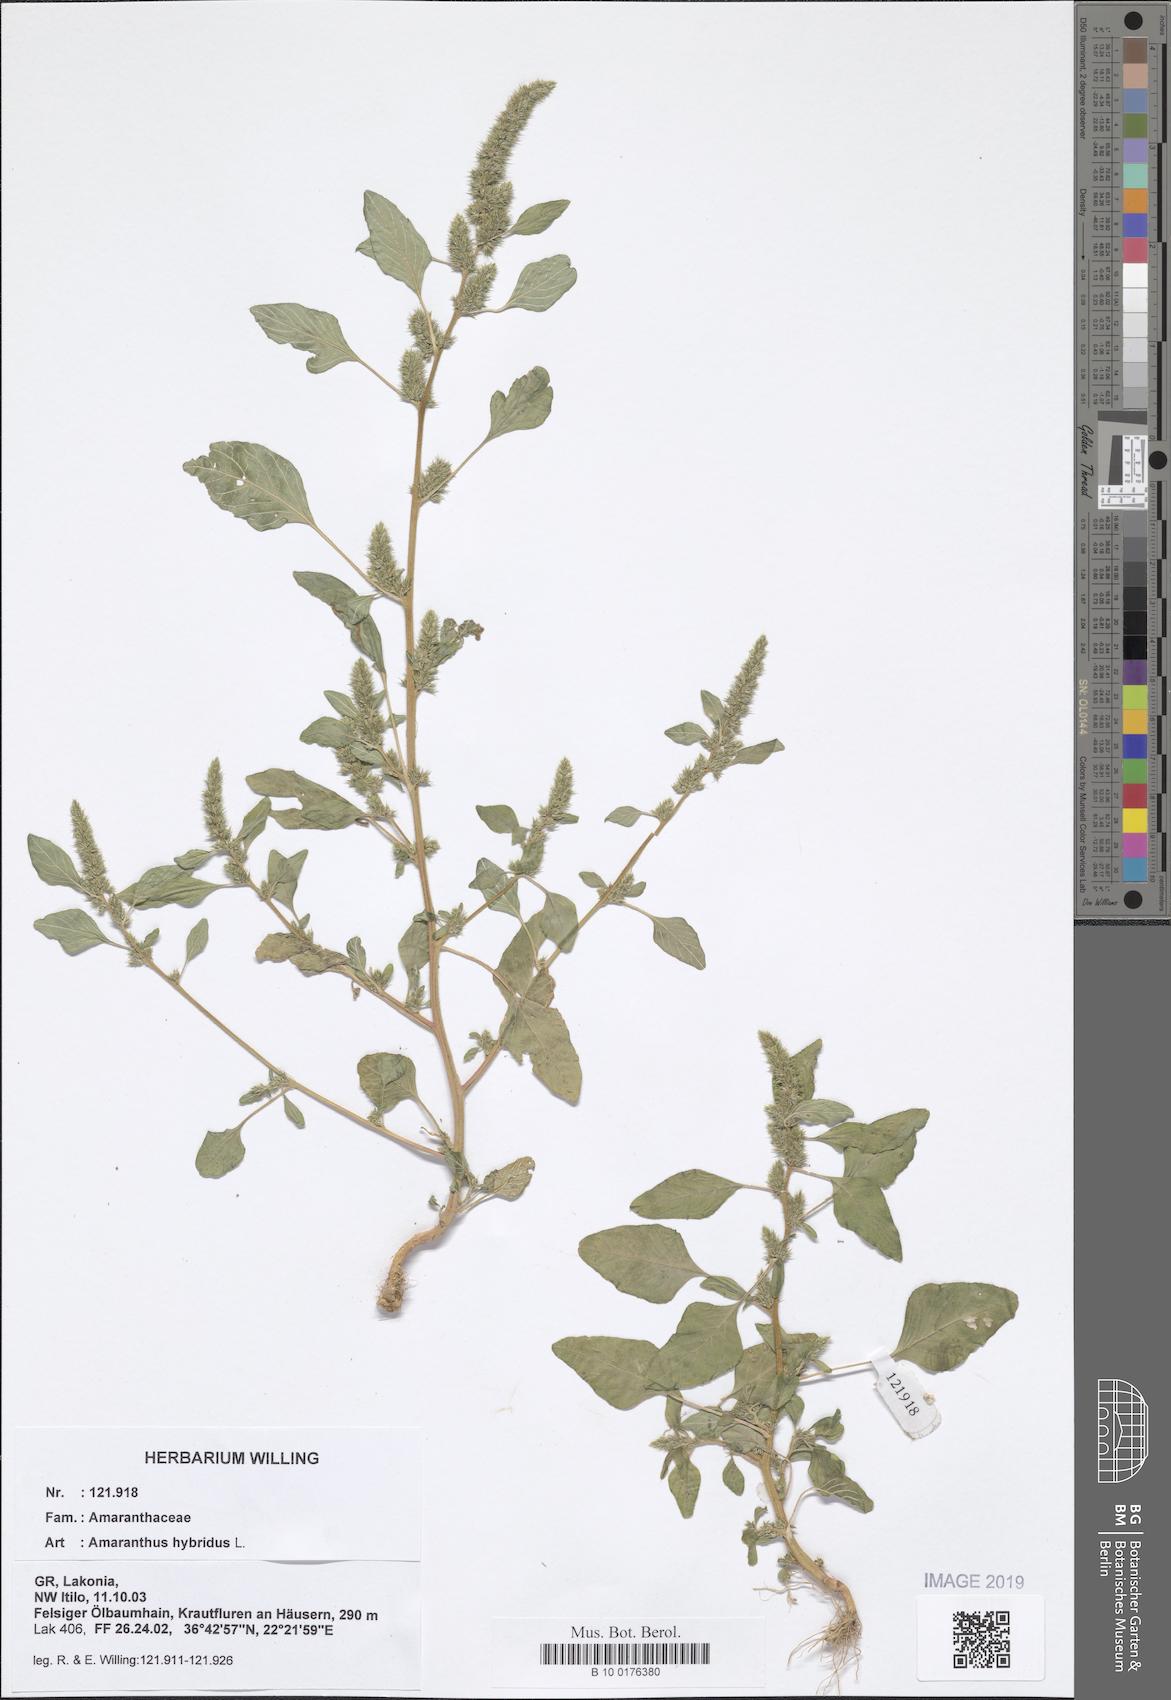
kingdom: Plantae
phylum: Tracheophyta
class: Magnoliopsida
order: Caryophyllales
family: Amaranthaceae
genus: Amaranthus
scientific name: Amaranthus hybridus
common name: Green amaranth
